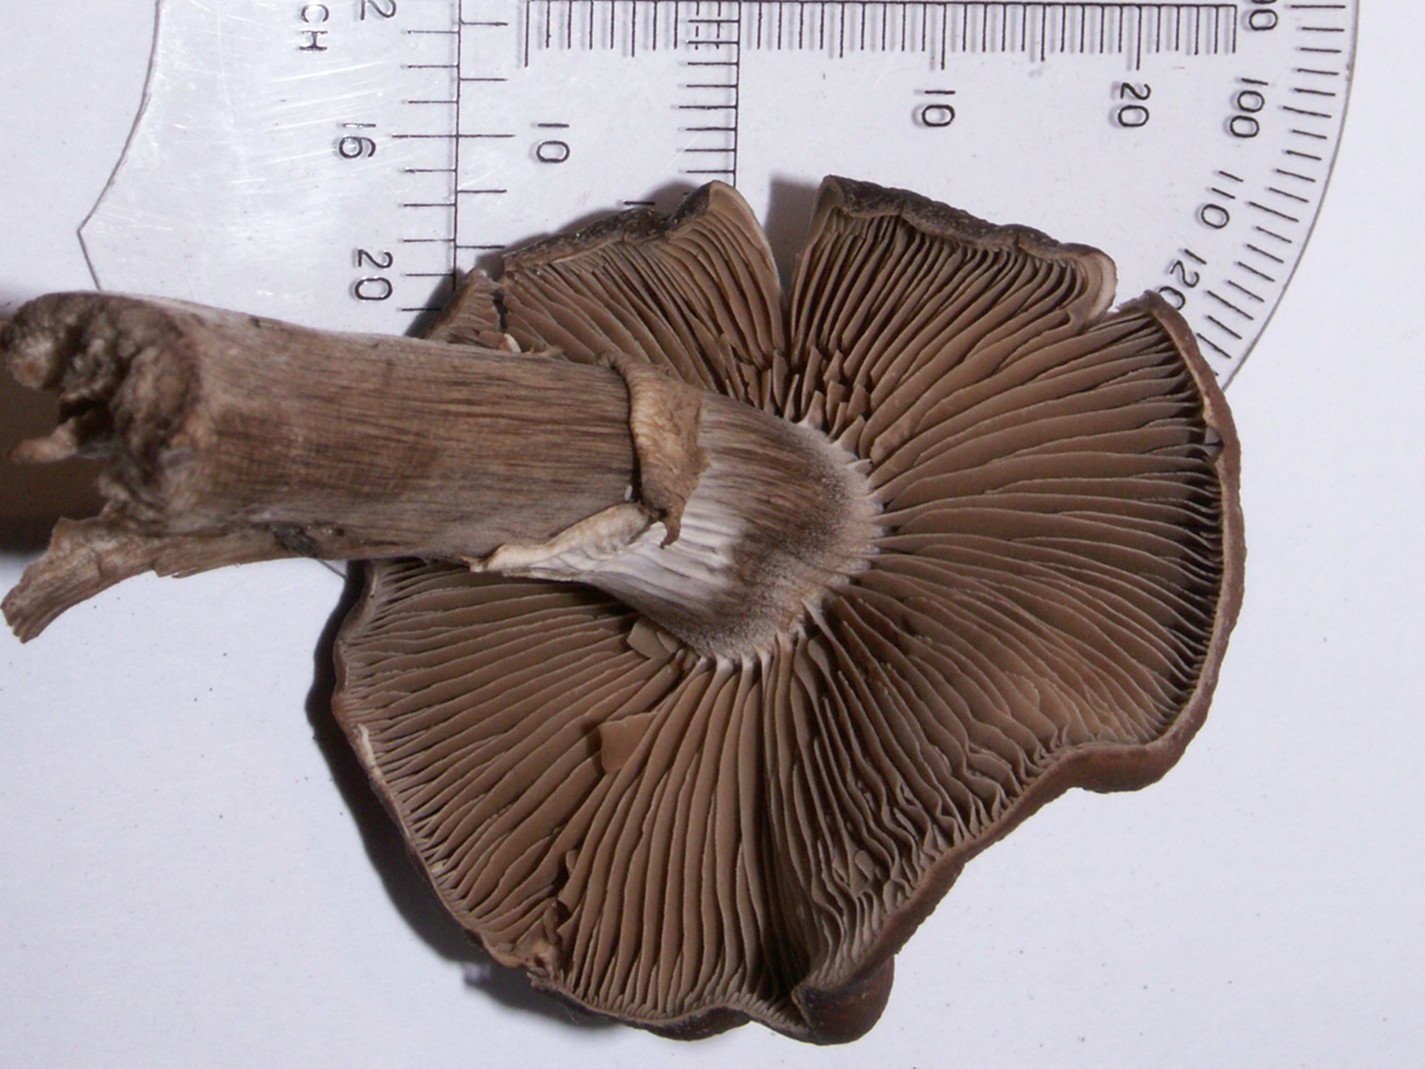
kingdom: Fungi
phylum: Basidiomycota
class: Agaricomycetes
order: Agaricales
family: Tubariaceae
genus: Cyclocybe
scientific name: Cyclocybe erebia
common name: mørk agerhat
